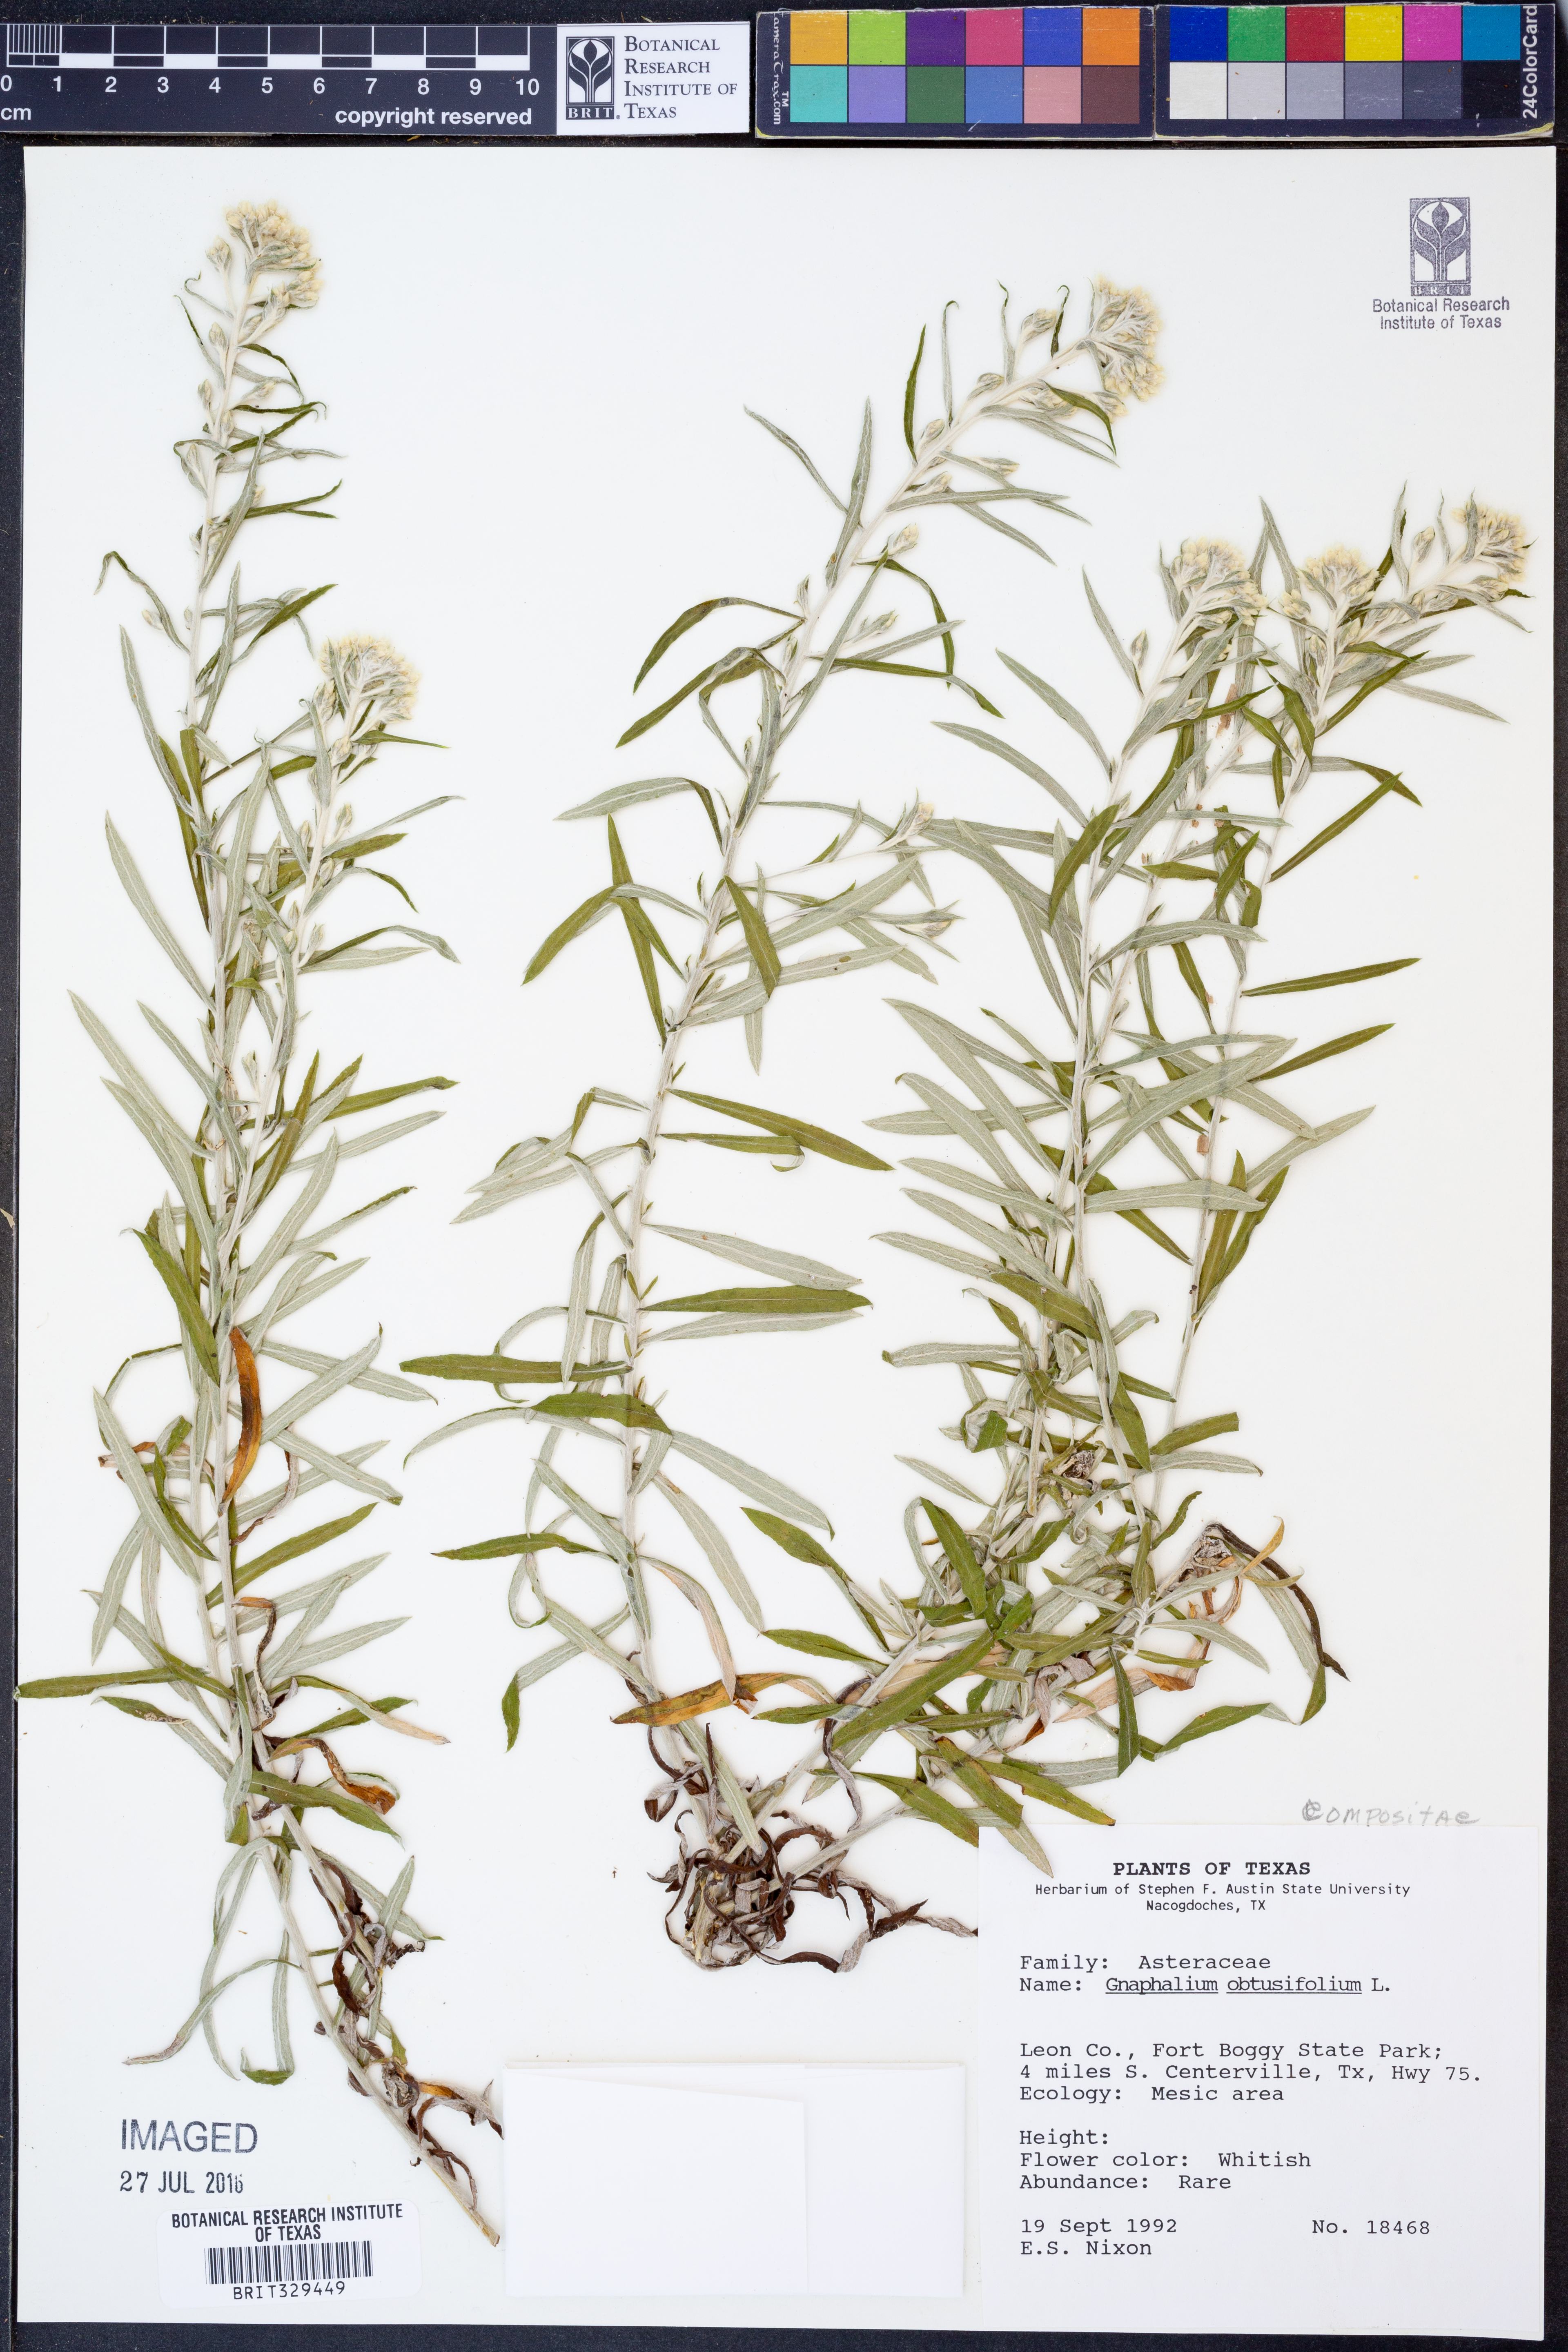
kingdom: Plantae
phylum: Tracheophyta
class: Magnoliopsida
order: Asterales
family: Asteraceae
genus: Pseudognaphalium
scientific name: Pseudognaphalium obtusifolium
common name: Eastern rabbit-tobacco
